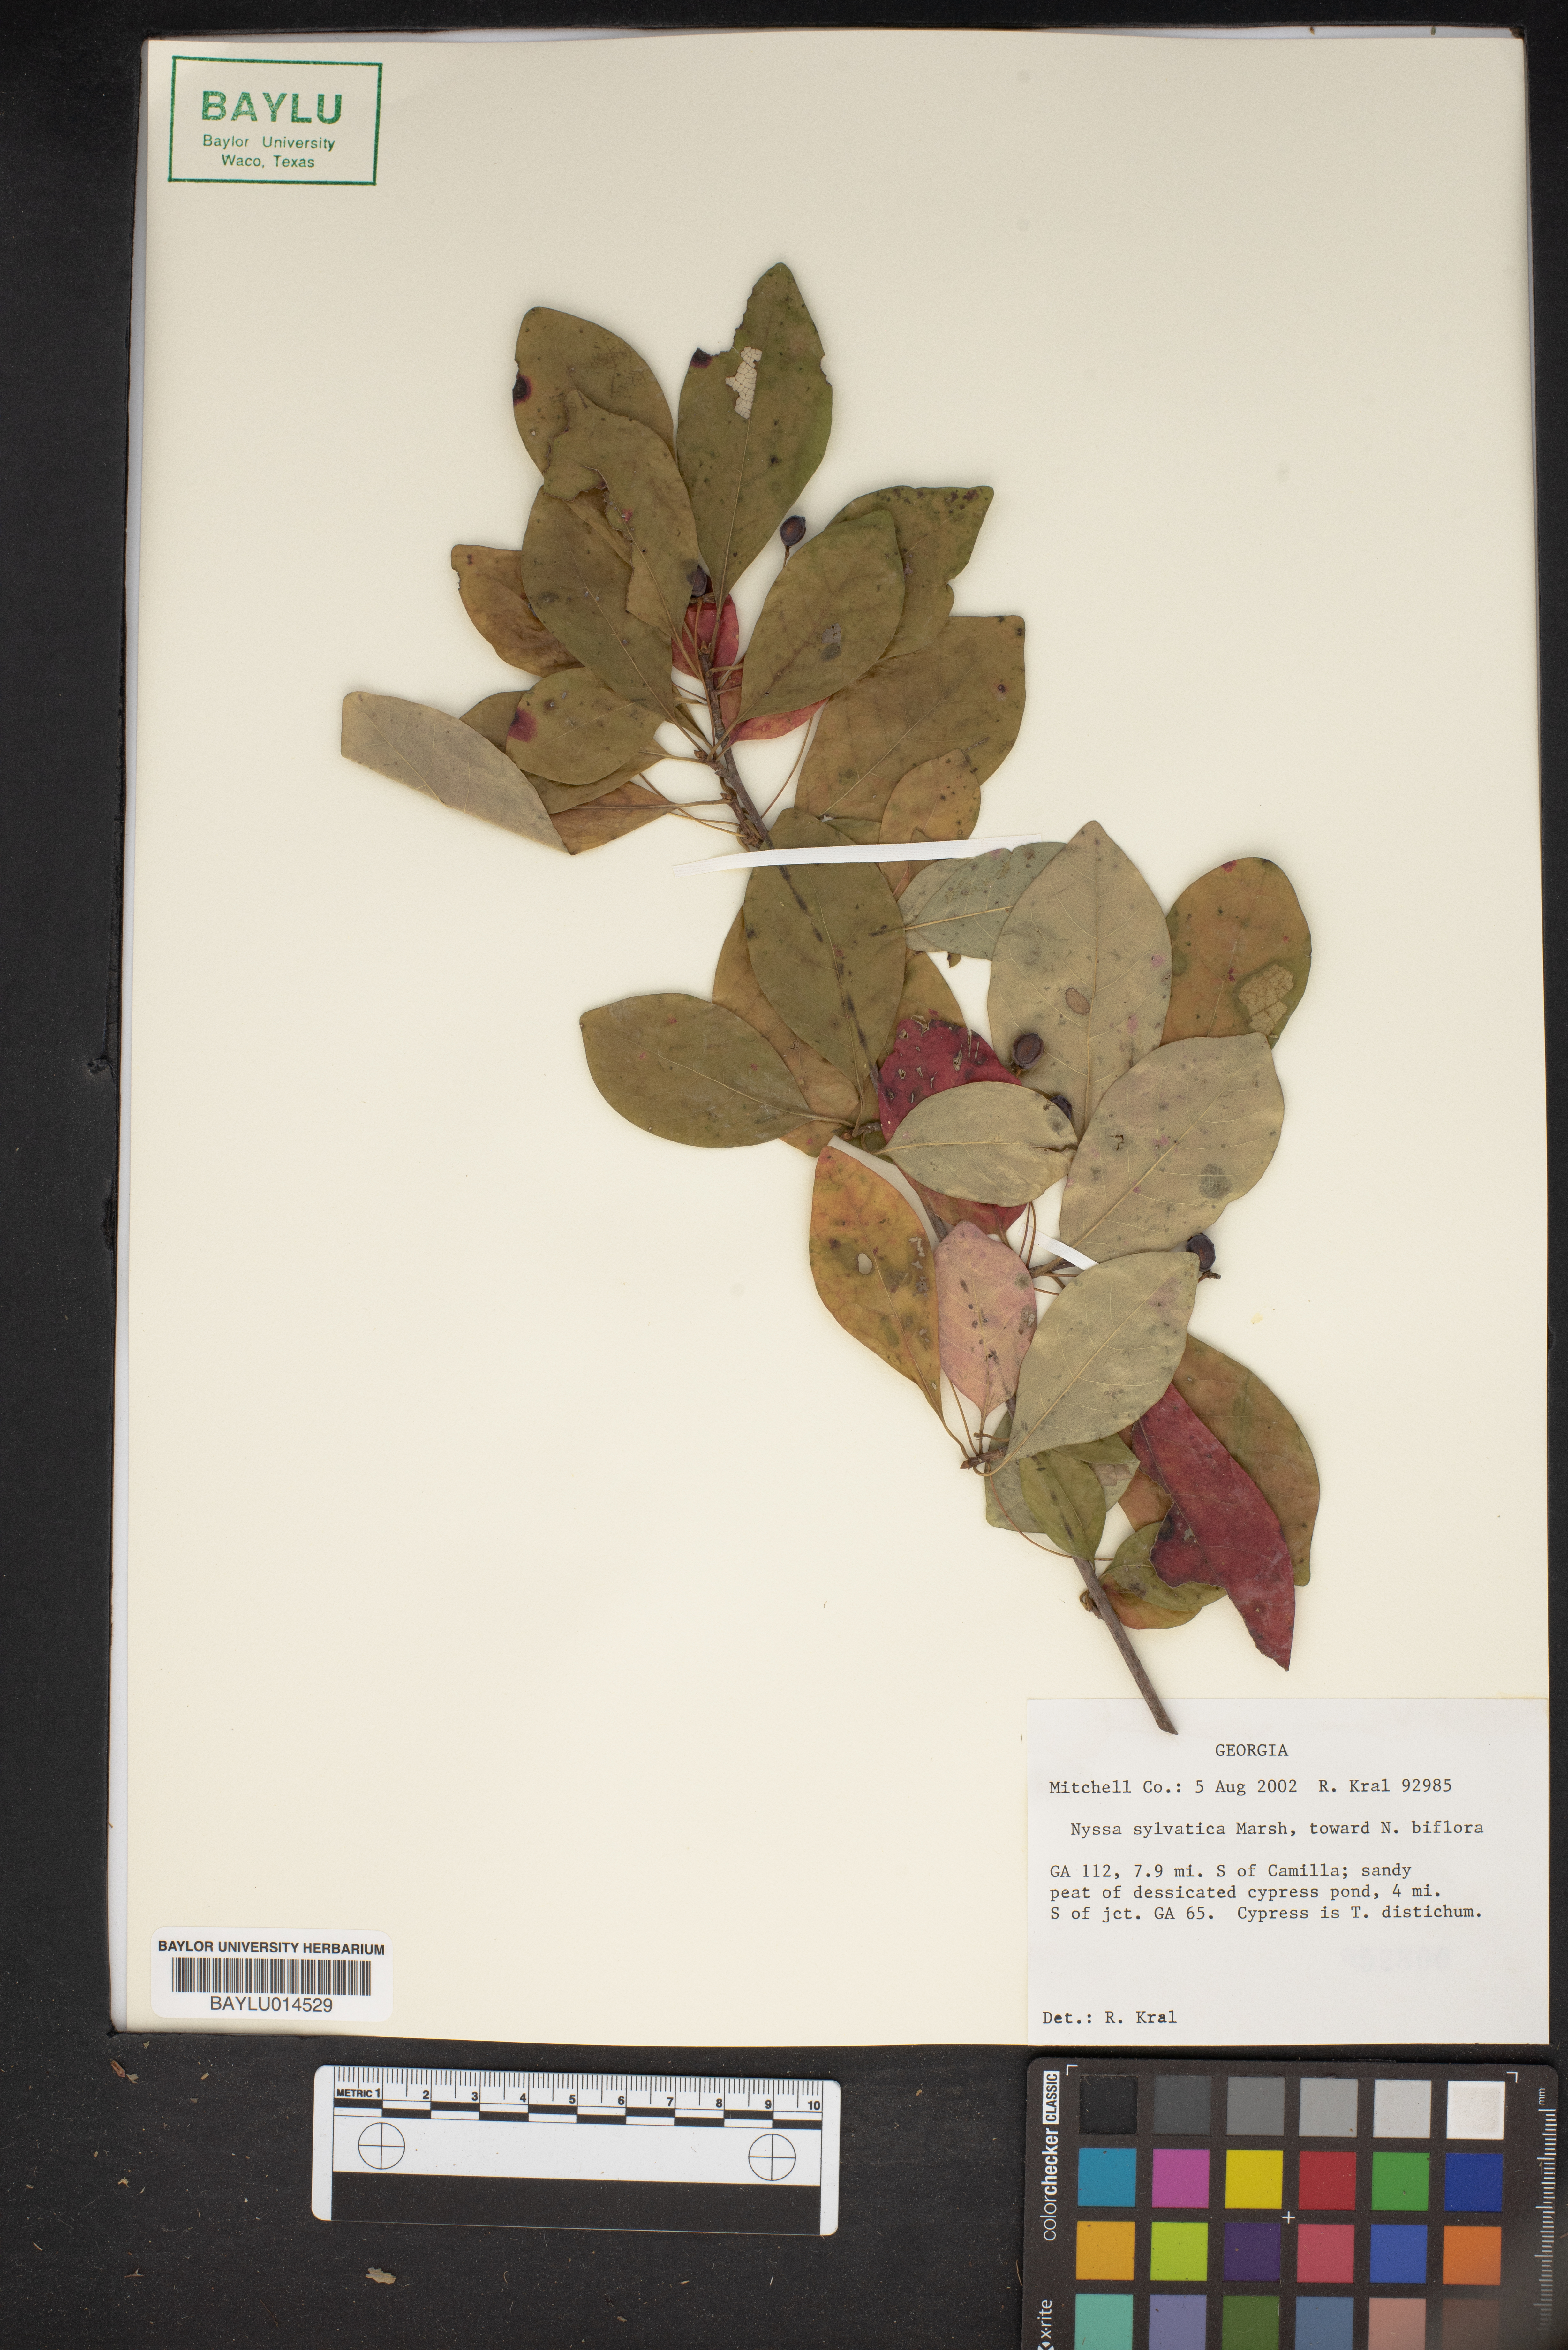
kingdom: Plantae
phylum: Tracheophyta
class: Magnoliopsida
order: Cornales
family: Nyssaceae
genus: Nyssa
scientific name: Nyssa sylvatica
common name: Black tupelo
